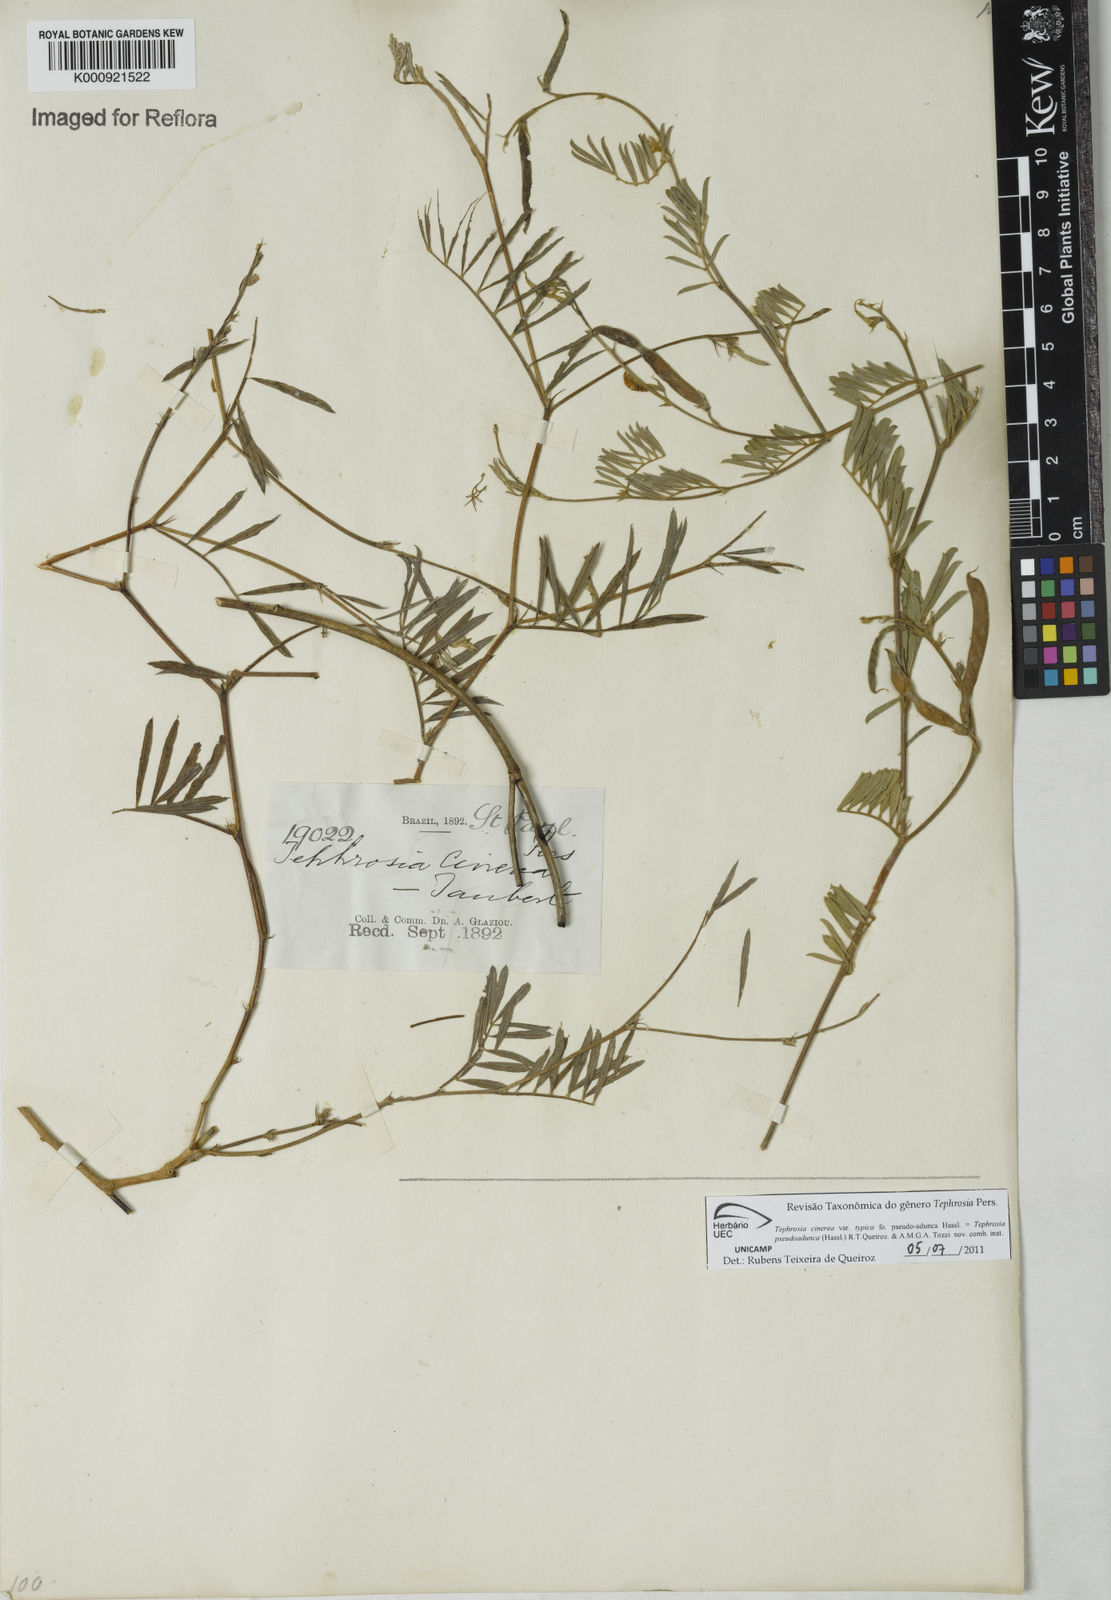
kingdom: Plantae
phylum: Tracheophyta
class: Magnoliopsida
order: Fabales
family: Fabaceae
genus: Tephrosia
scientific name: Tephrosia
